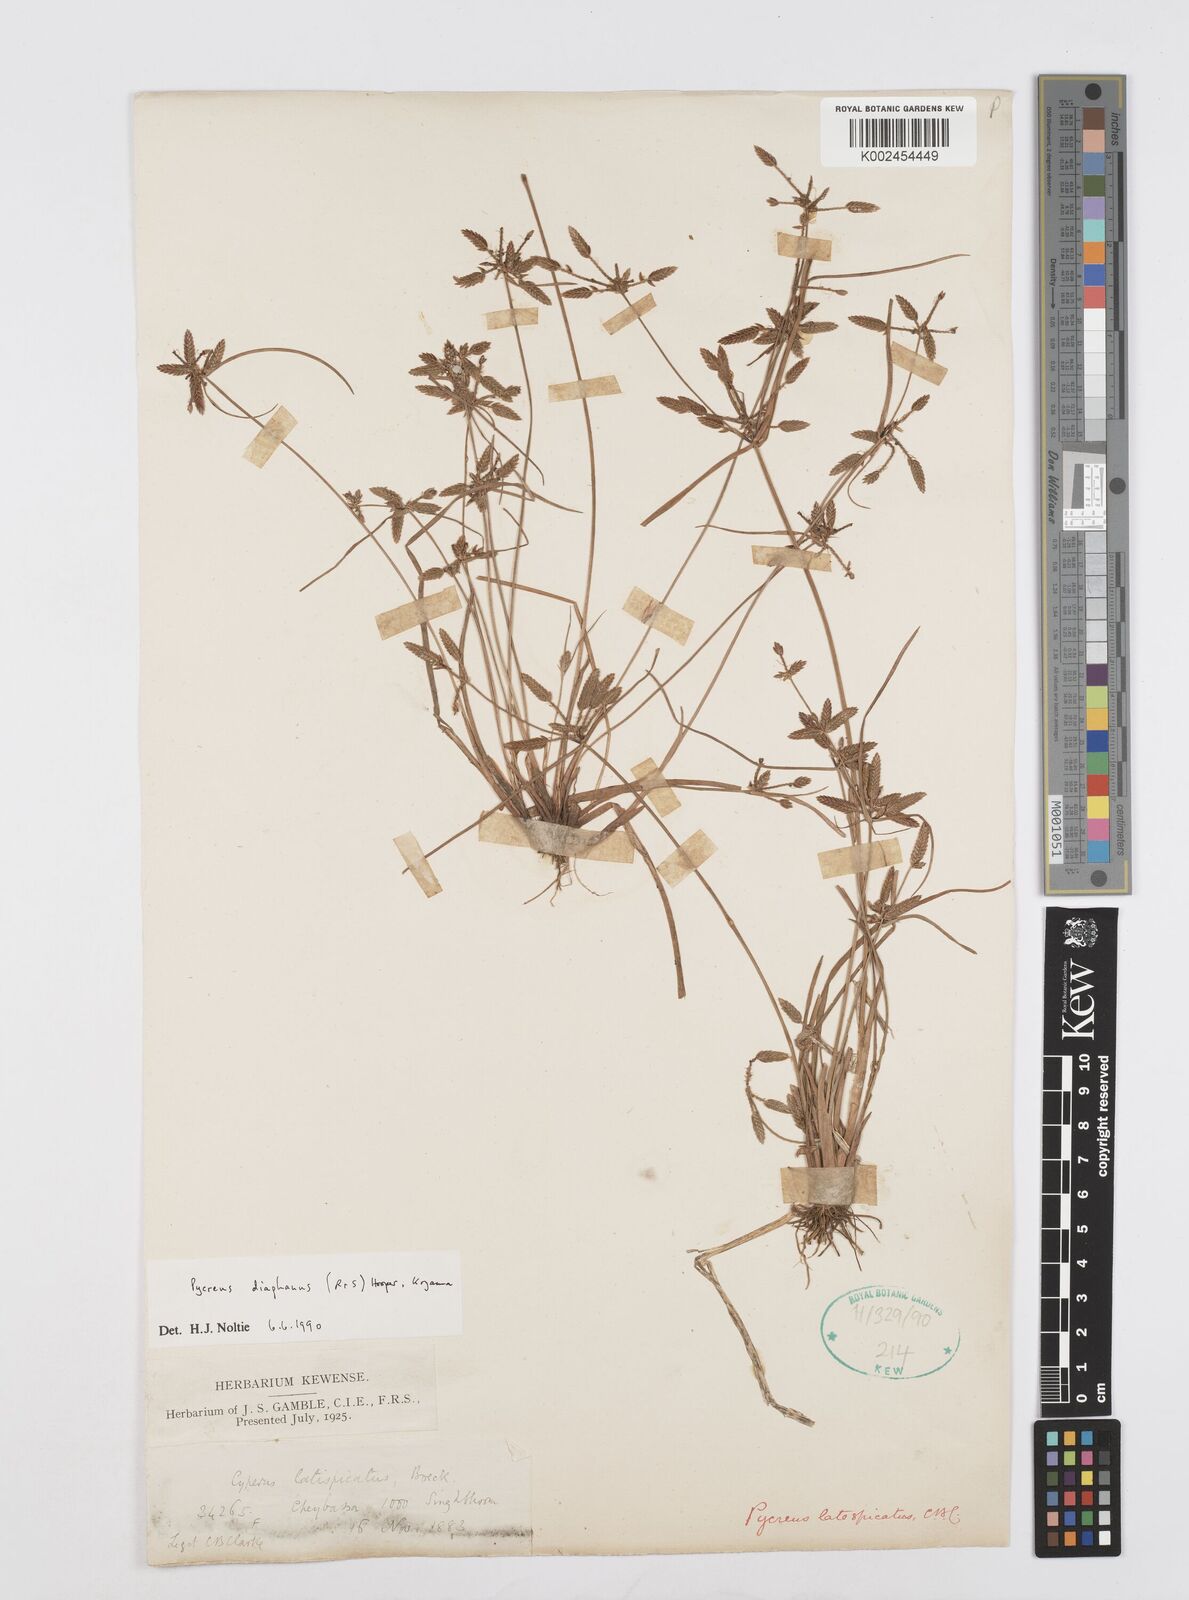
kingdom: Plantae
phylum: Tracheophyta
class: Liliopsida
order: Poales
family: Cyperaceae
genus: Cyperus
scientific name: Cyperus diaphanus
